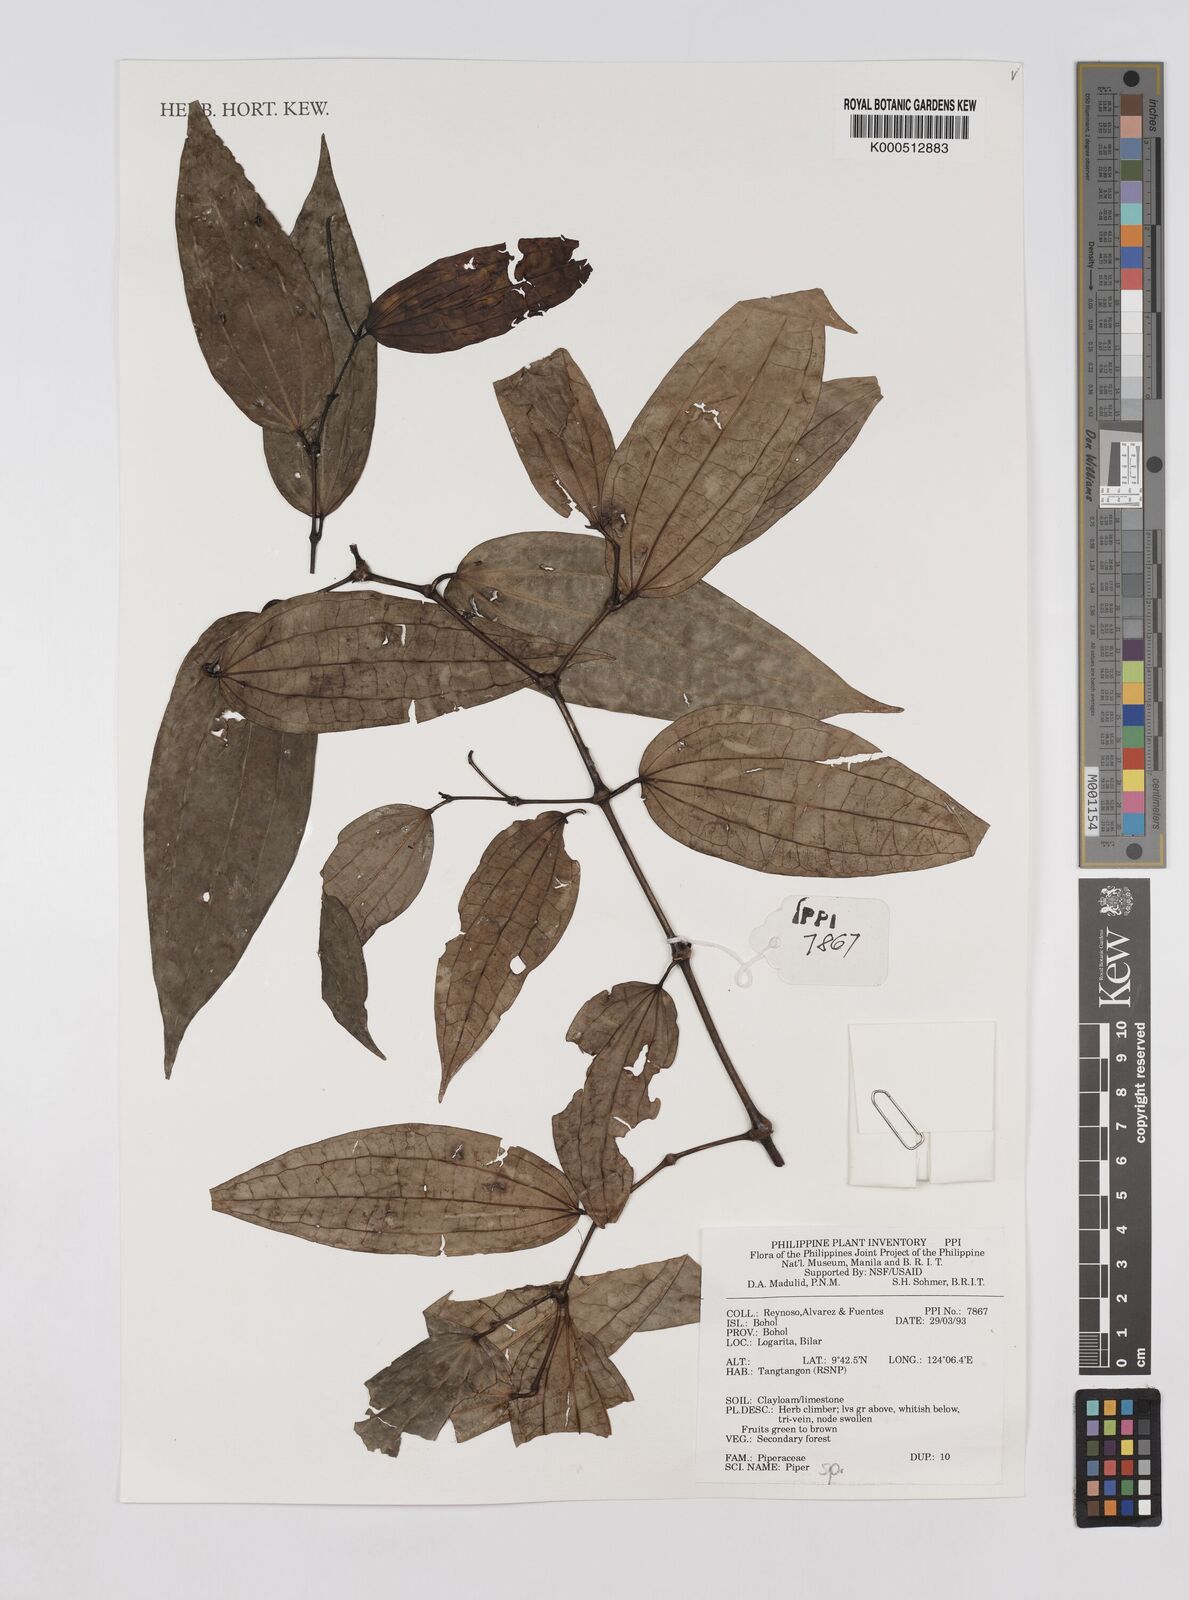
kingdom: Plantae
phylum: Tracheophyta
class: Magnoliopsida
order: Piperales
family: Piperaceae
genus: Piper
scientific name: Piper
